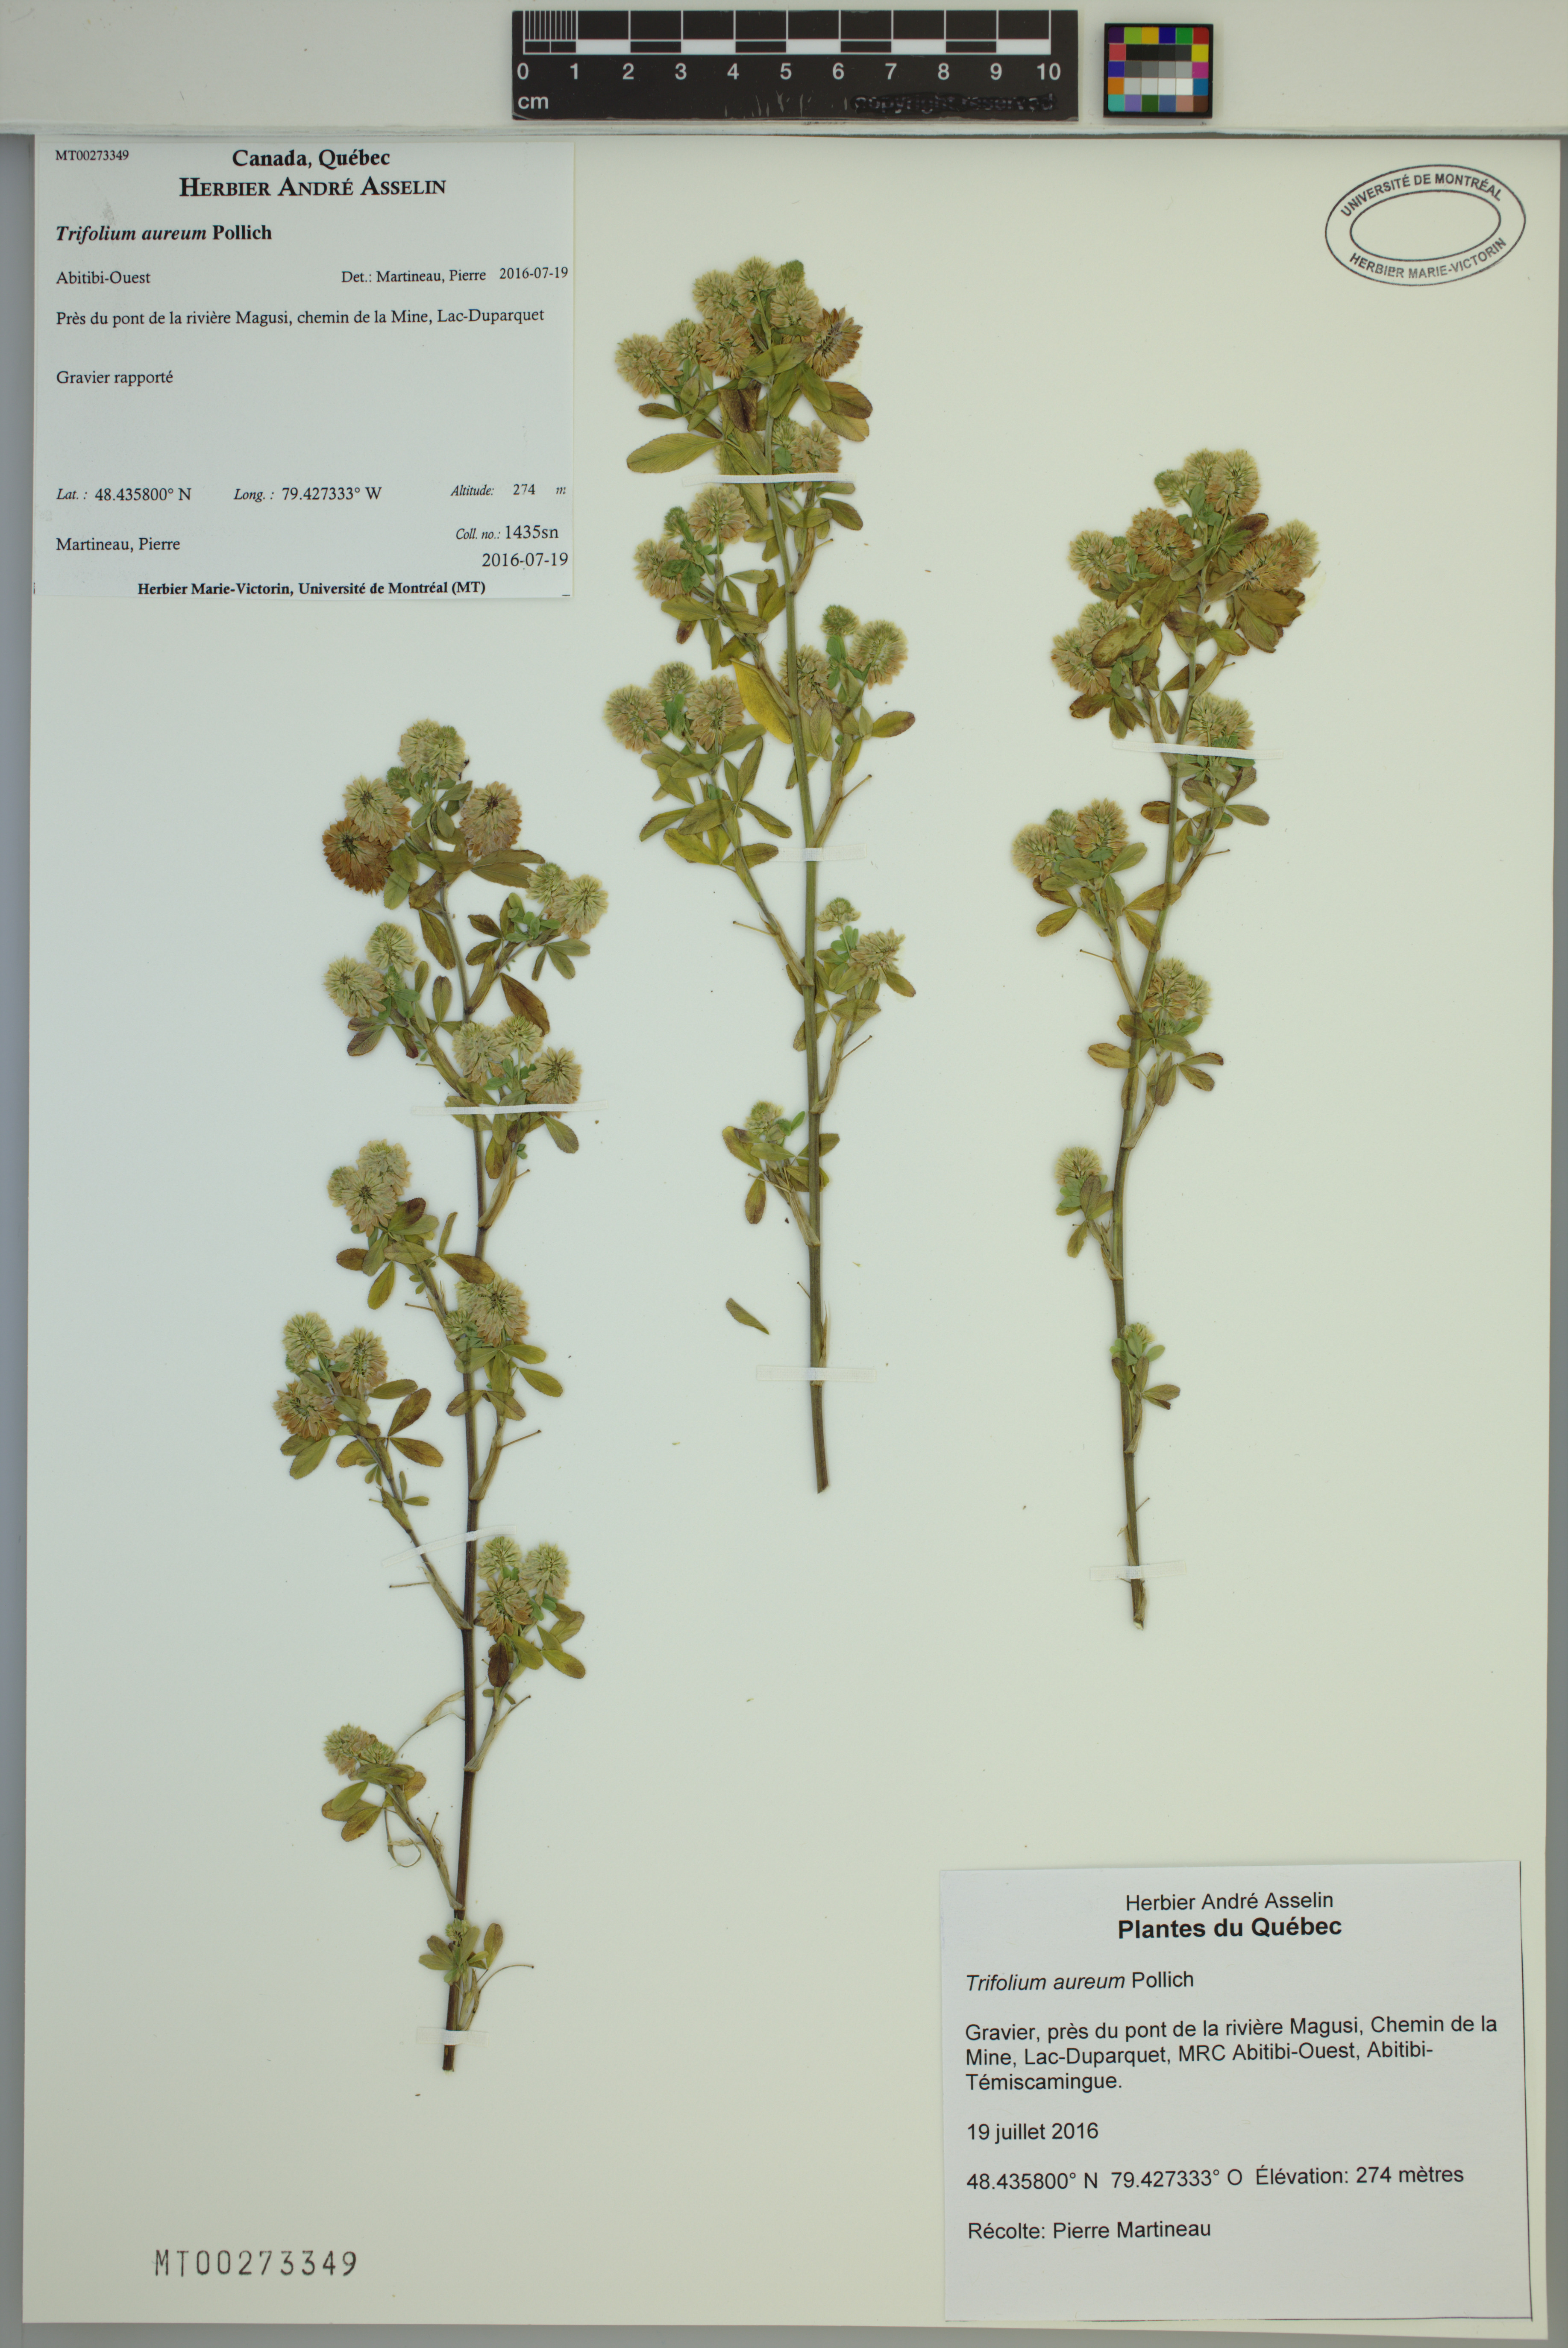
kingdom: Plantae
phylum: Tracheophyta
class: Magnoliopsida
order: Fabales
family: Fabaceae
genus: Trifolium
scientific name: Trifolium aureum
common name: Golden clover
